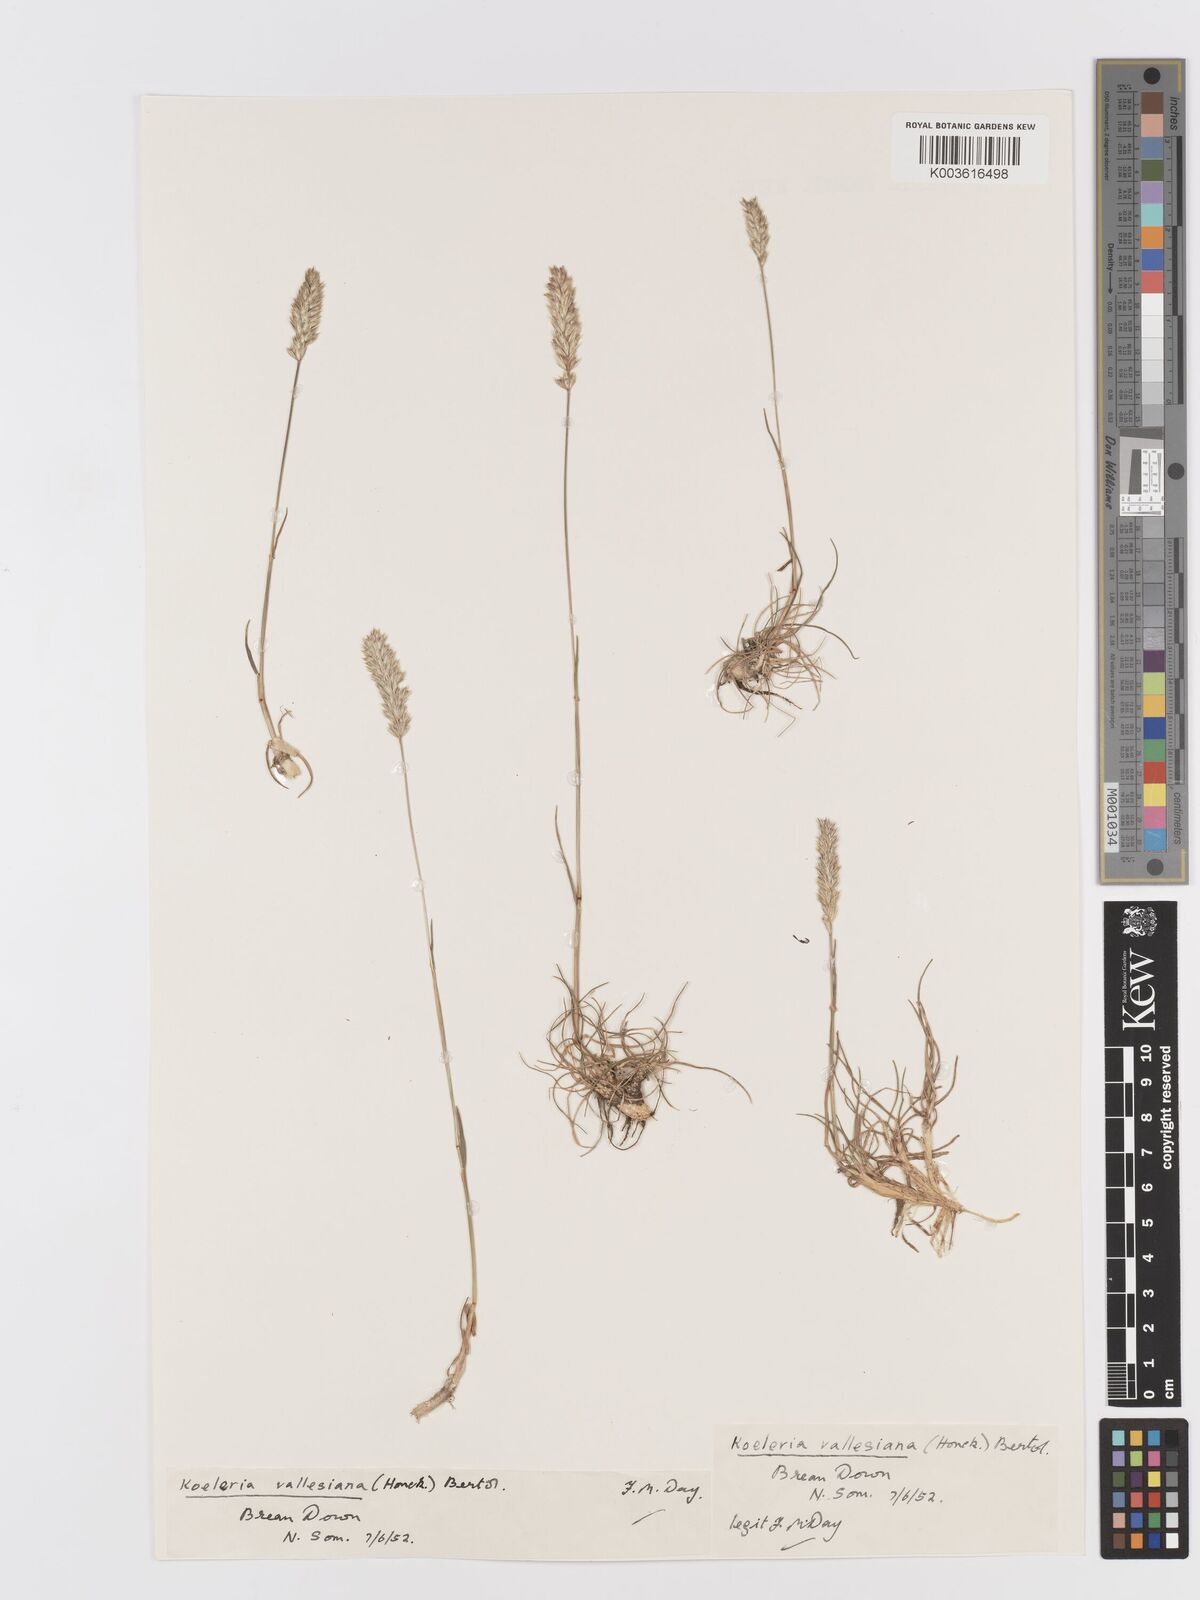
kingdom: Plantae
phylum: Tracheophyta
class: Liliopsida
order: Poales
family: Poaceae
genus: Koeleria
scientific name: Koeleria vallesiana
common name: Somerset hair-grass
